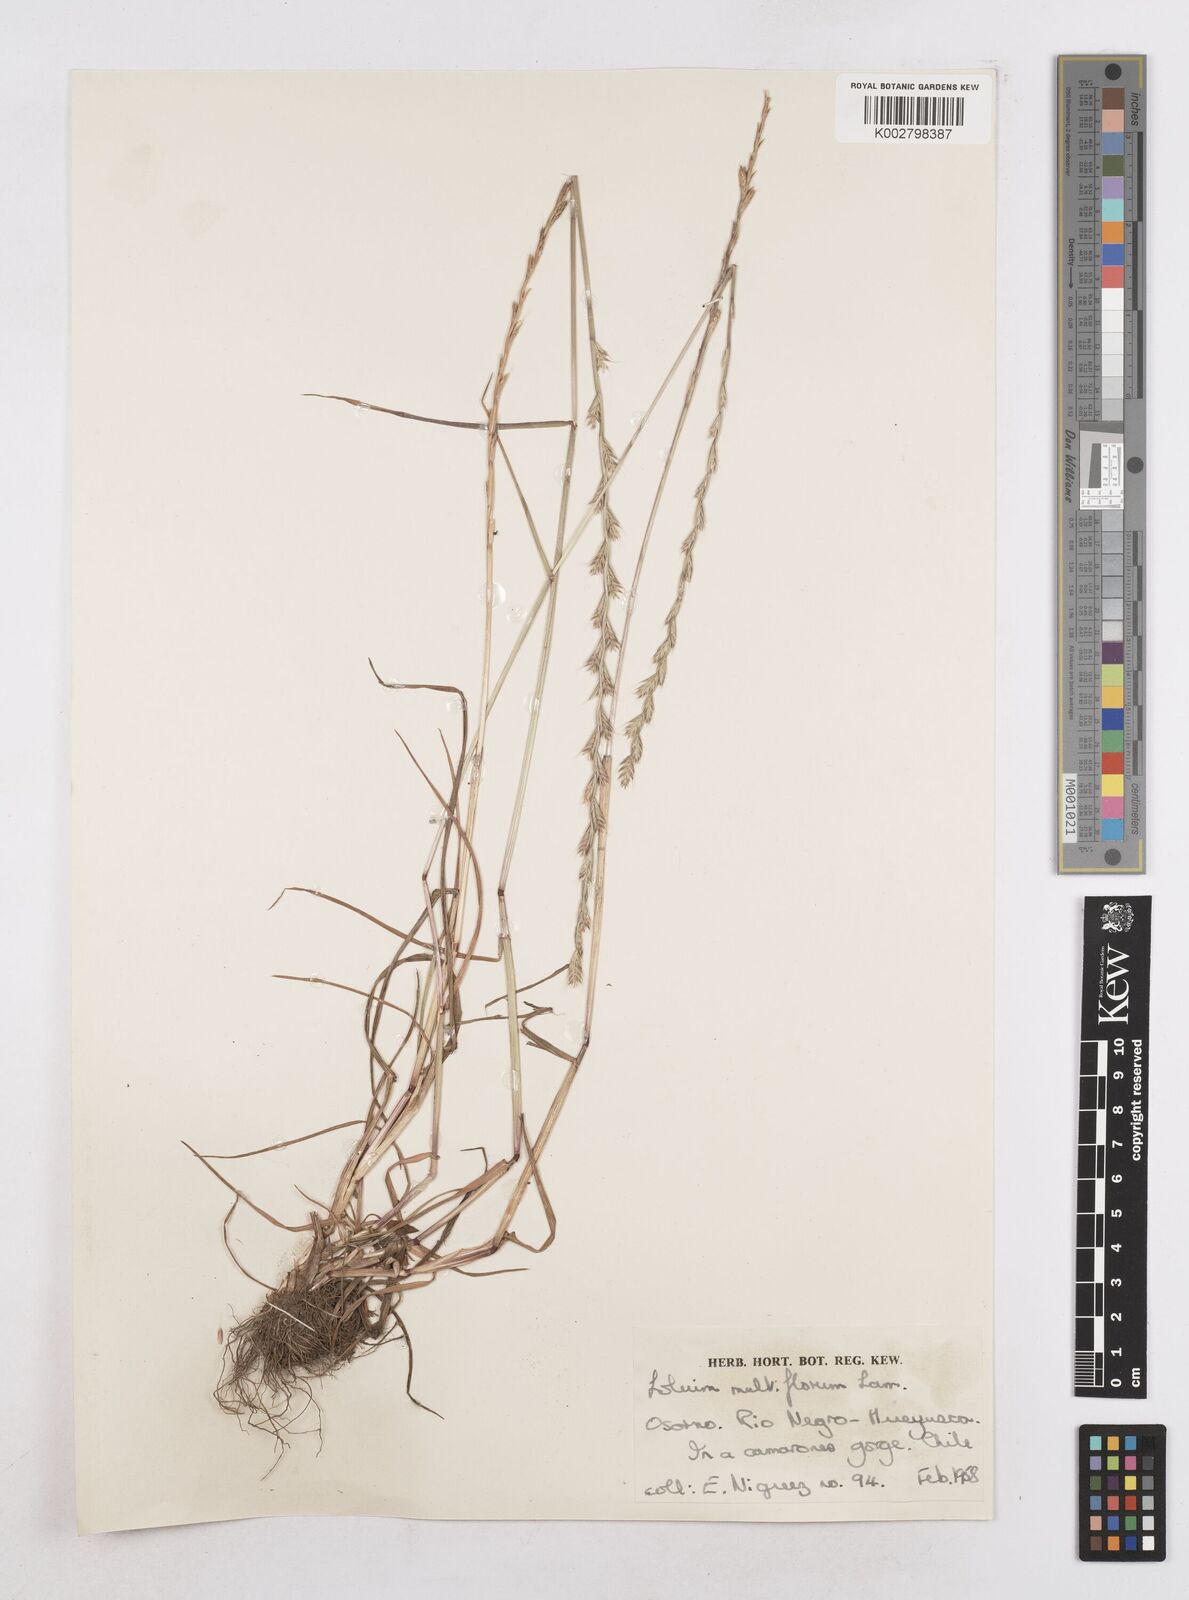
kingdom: Plantae
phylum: Tracheophyta
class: Liliopsida
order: Poales
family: Poaceae
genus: Lolium
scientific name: Lolium multiflorum
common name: Annual ryegrass
